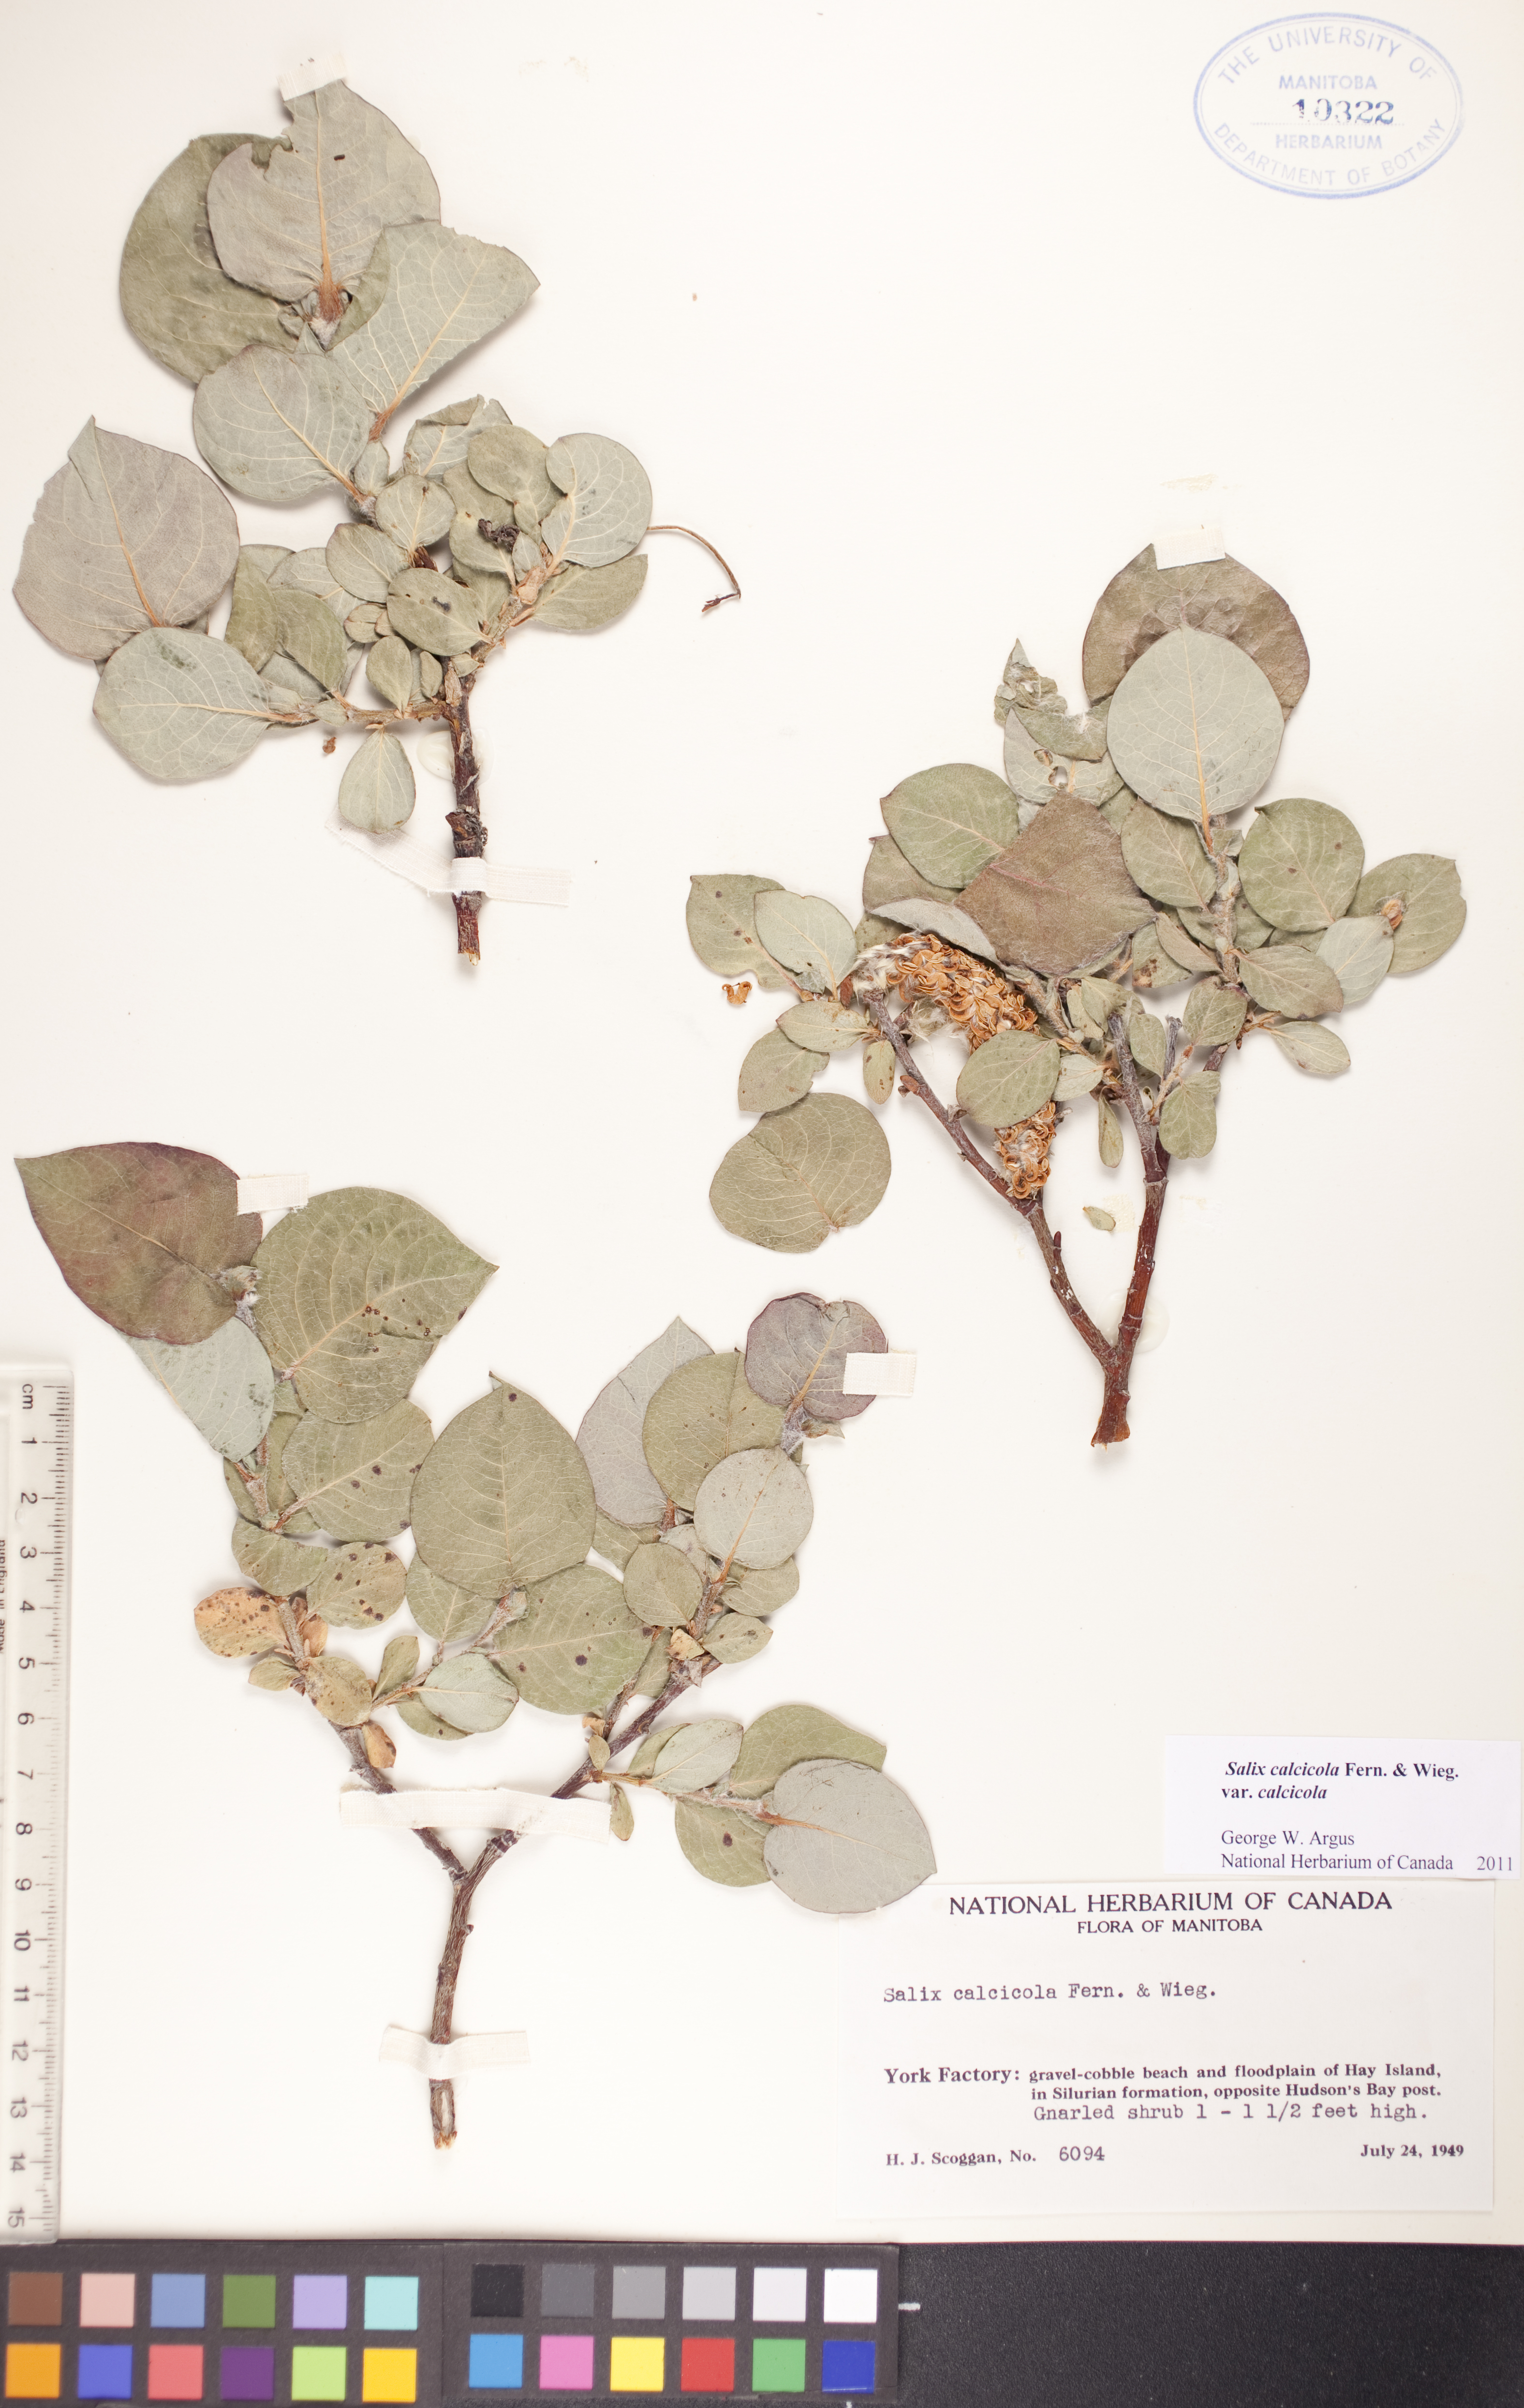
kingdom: Plantae
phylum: Tracheophyta
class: Magnoliopsida
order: Malpighiales
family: Salicaceae
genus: Salix
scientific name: Salix calcicola
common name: Calcareous willow
